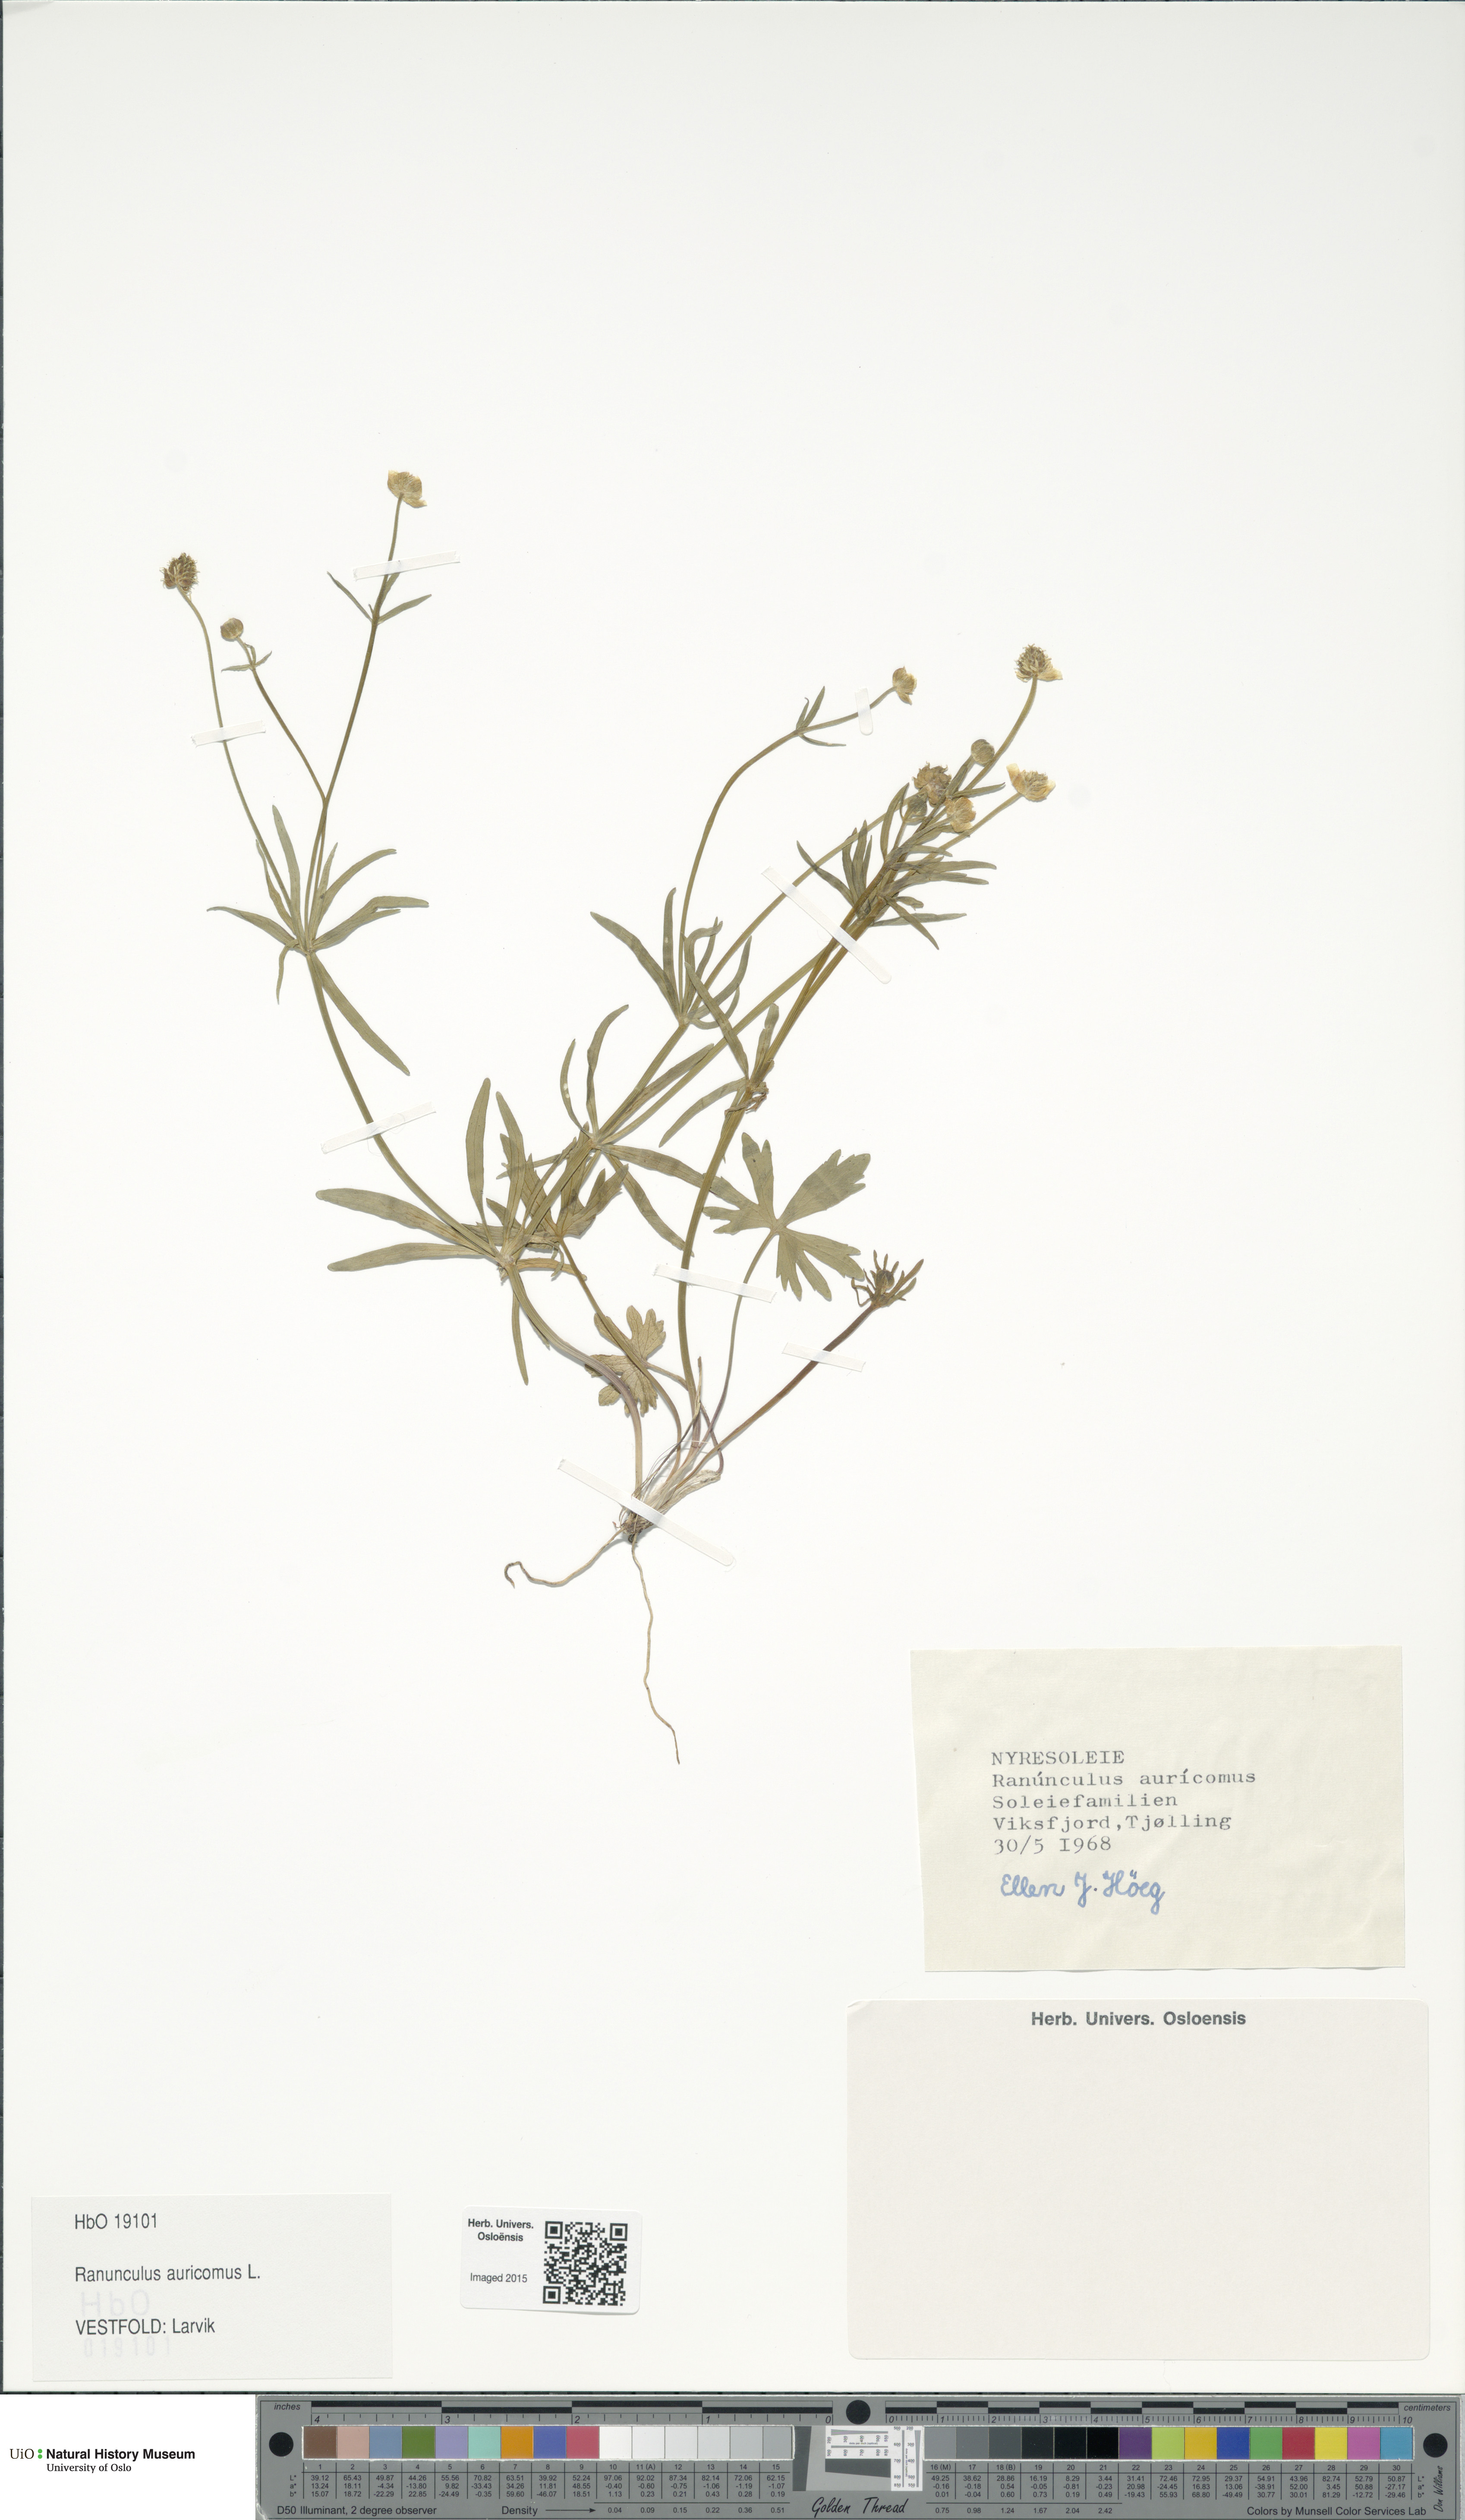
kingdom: Plantae
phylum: Tracheophyta
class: Magnoliopsida
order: Ranunculales
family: Ranunculaceae
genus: Ranunculus
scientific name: Ranunculus auricomus
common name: Goldilocks buttercup
